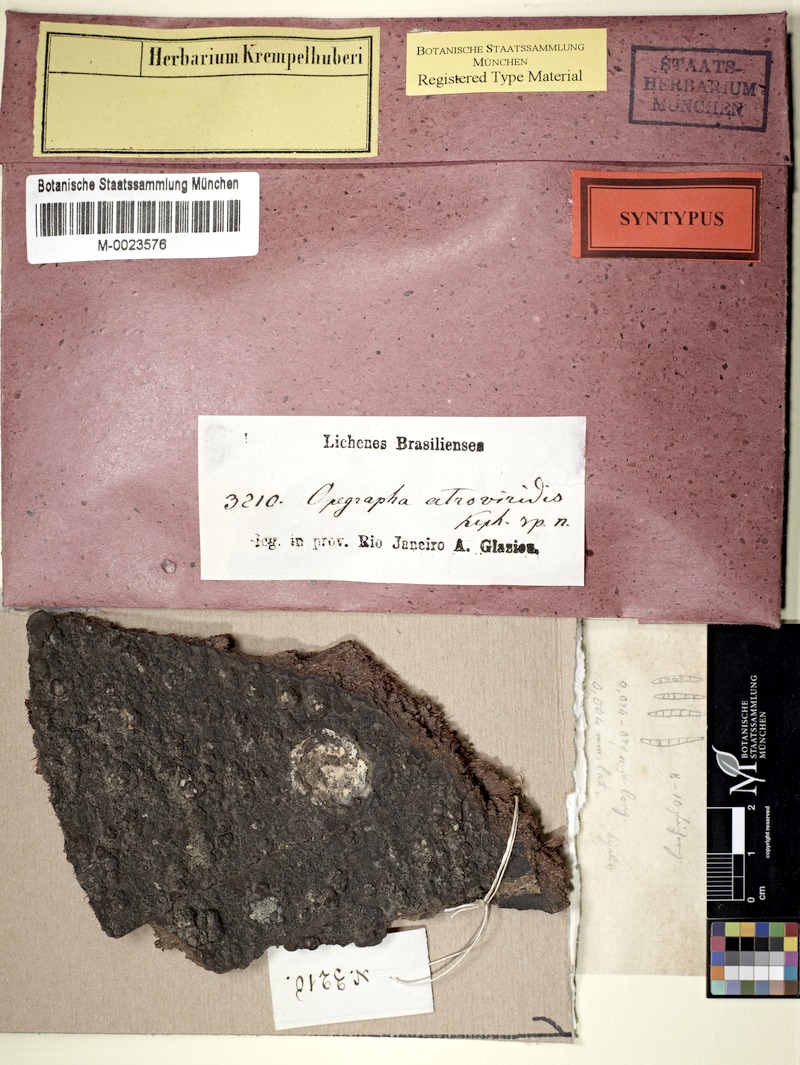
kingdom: Fungi
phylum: Ascomycota
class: Arthoniomycetes
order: Arthoniales
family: Opegraphaceae
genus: Opegrapha
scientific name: Opegrapha
